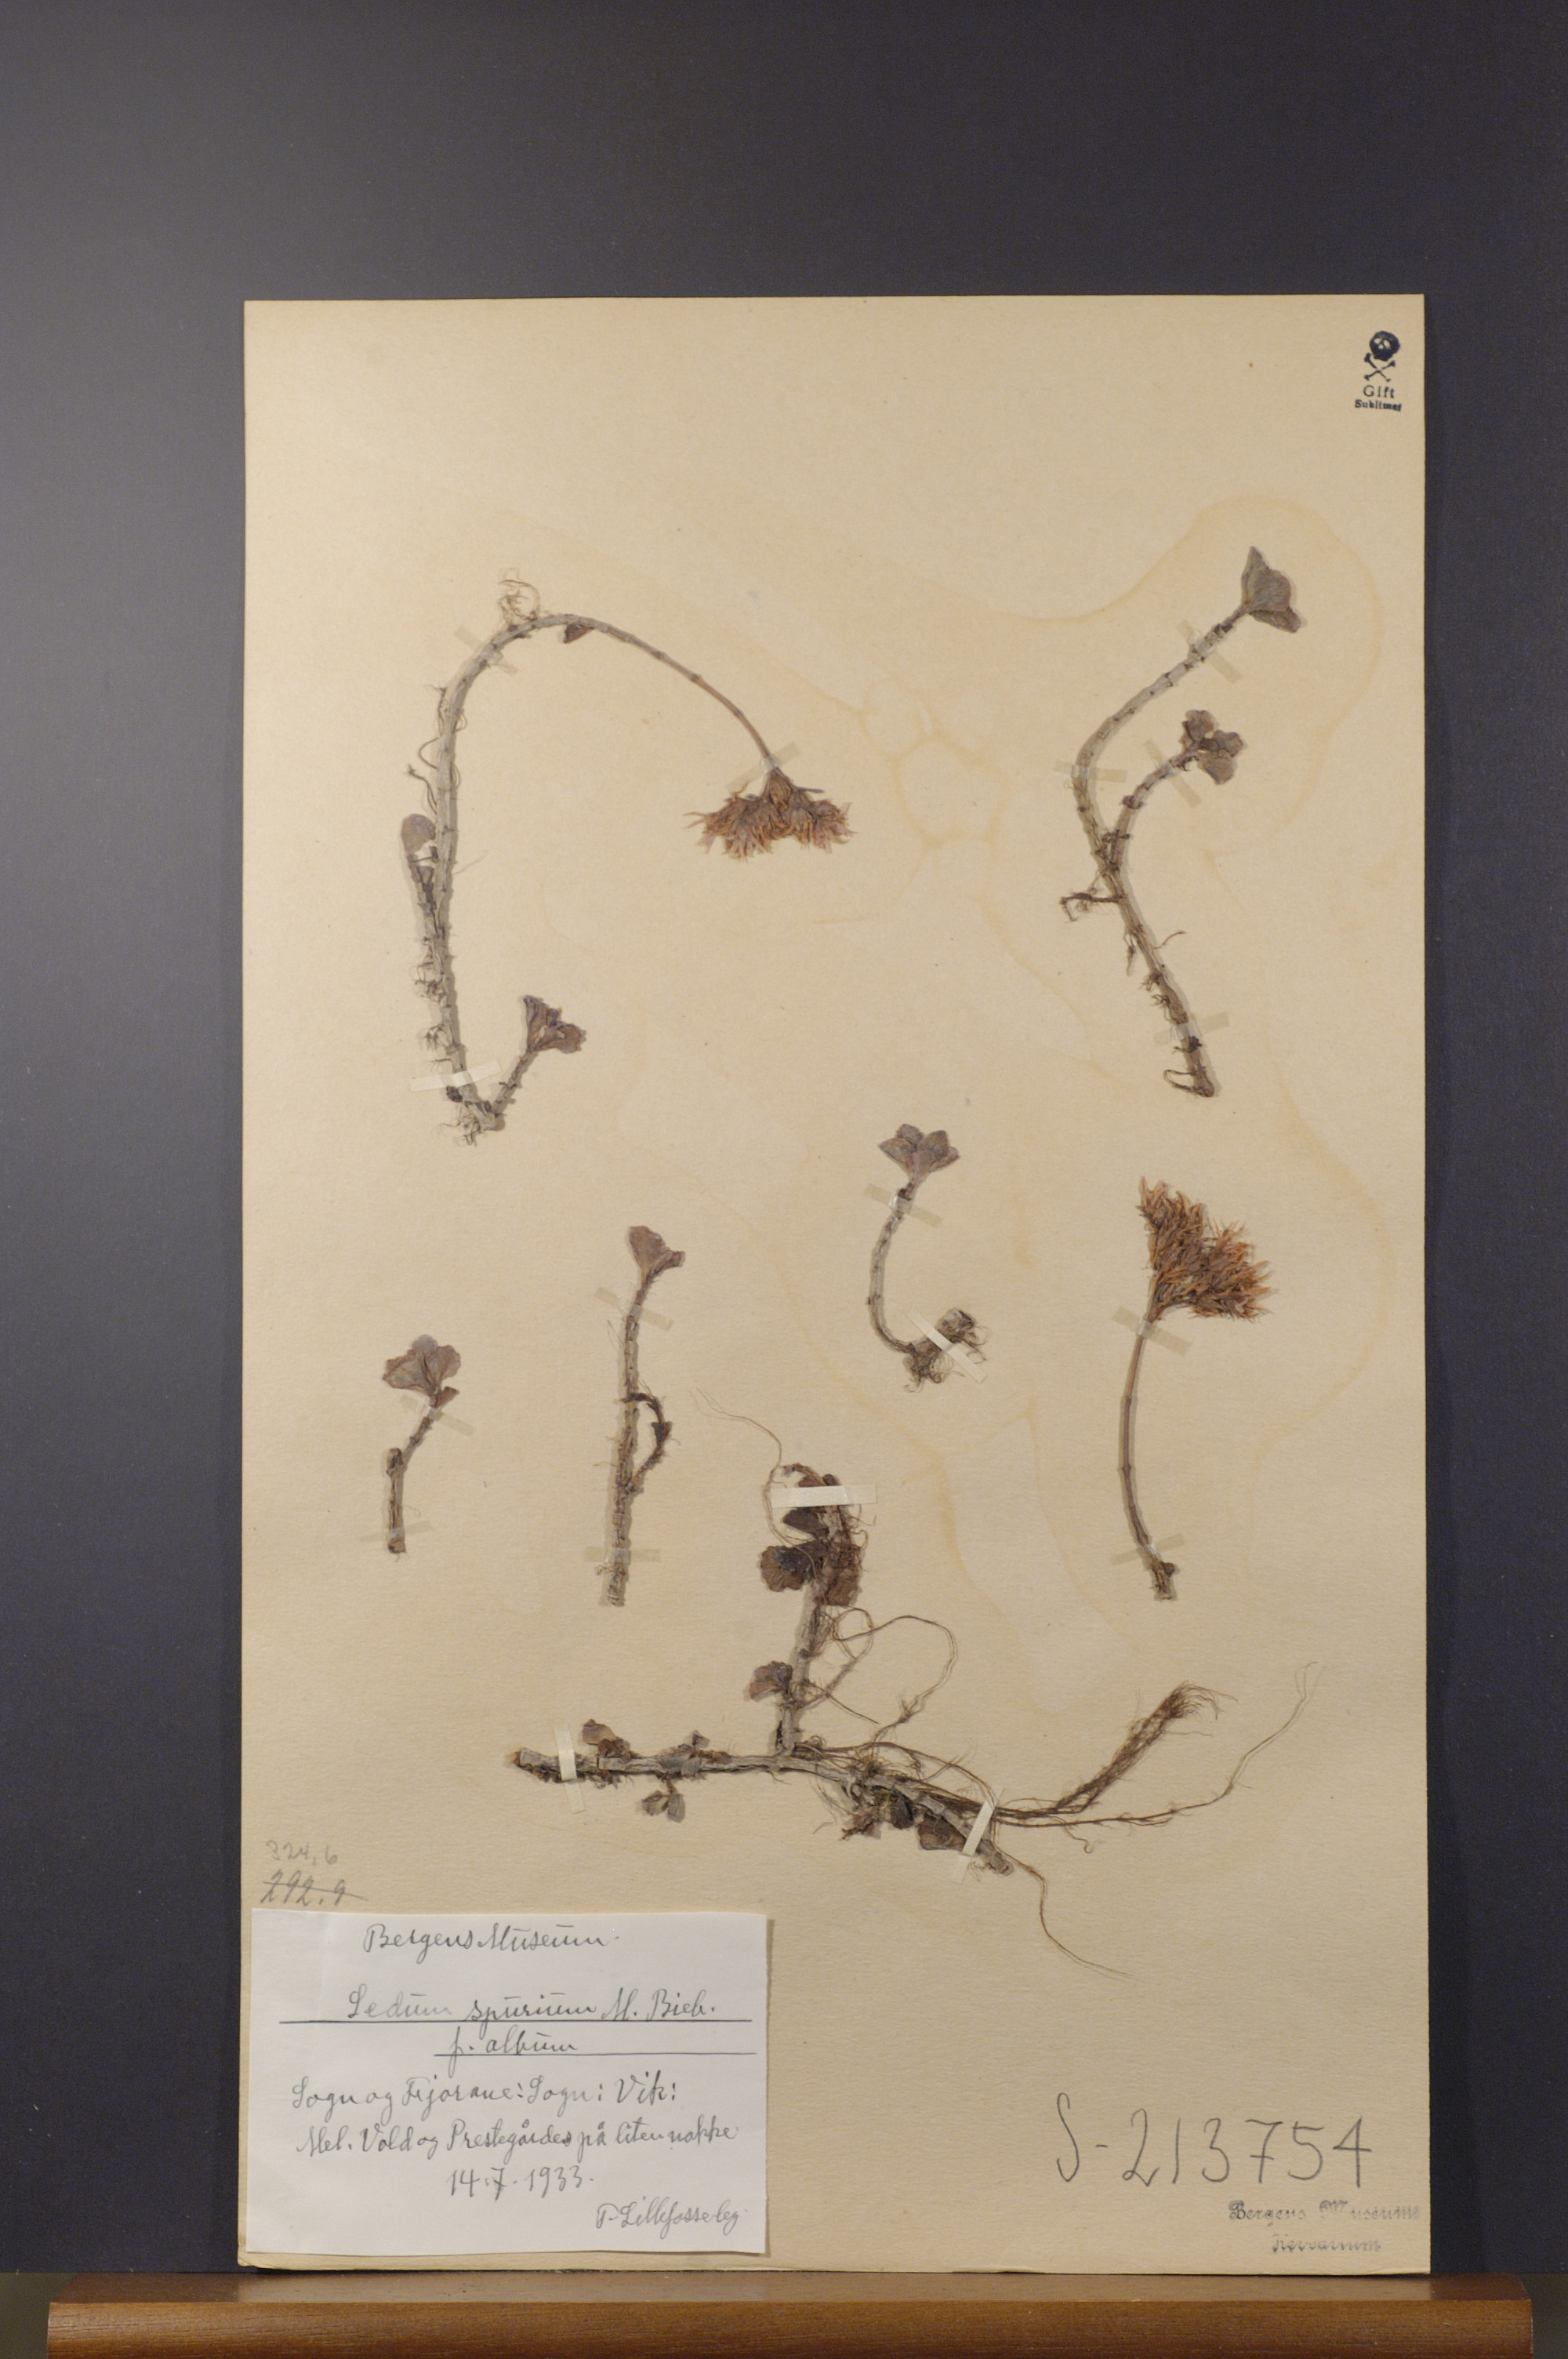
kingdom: Plantae
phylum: Tracheophyta
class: Magnoliopsida
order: Saxifragales
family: Crassulaceae
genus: Phedimus
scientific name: Phedimus spurius
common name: Caucasian stonecrop
